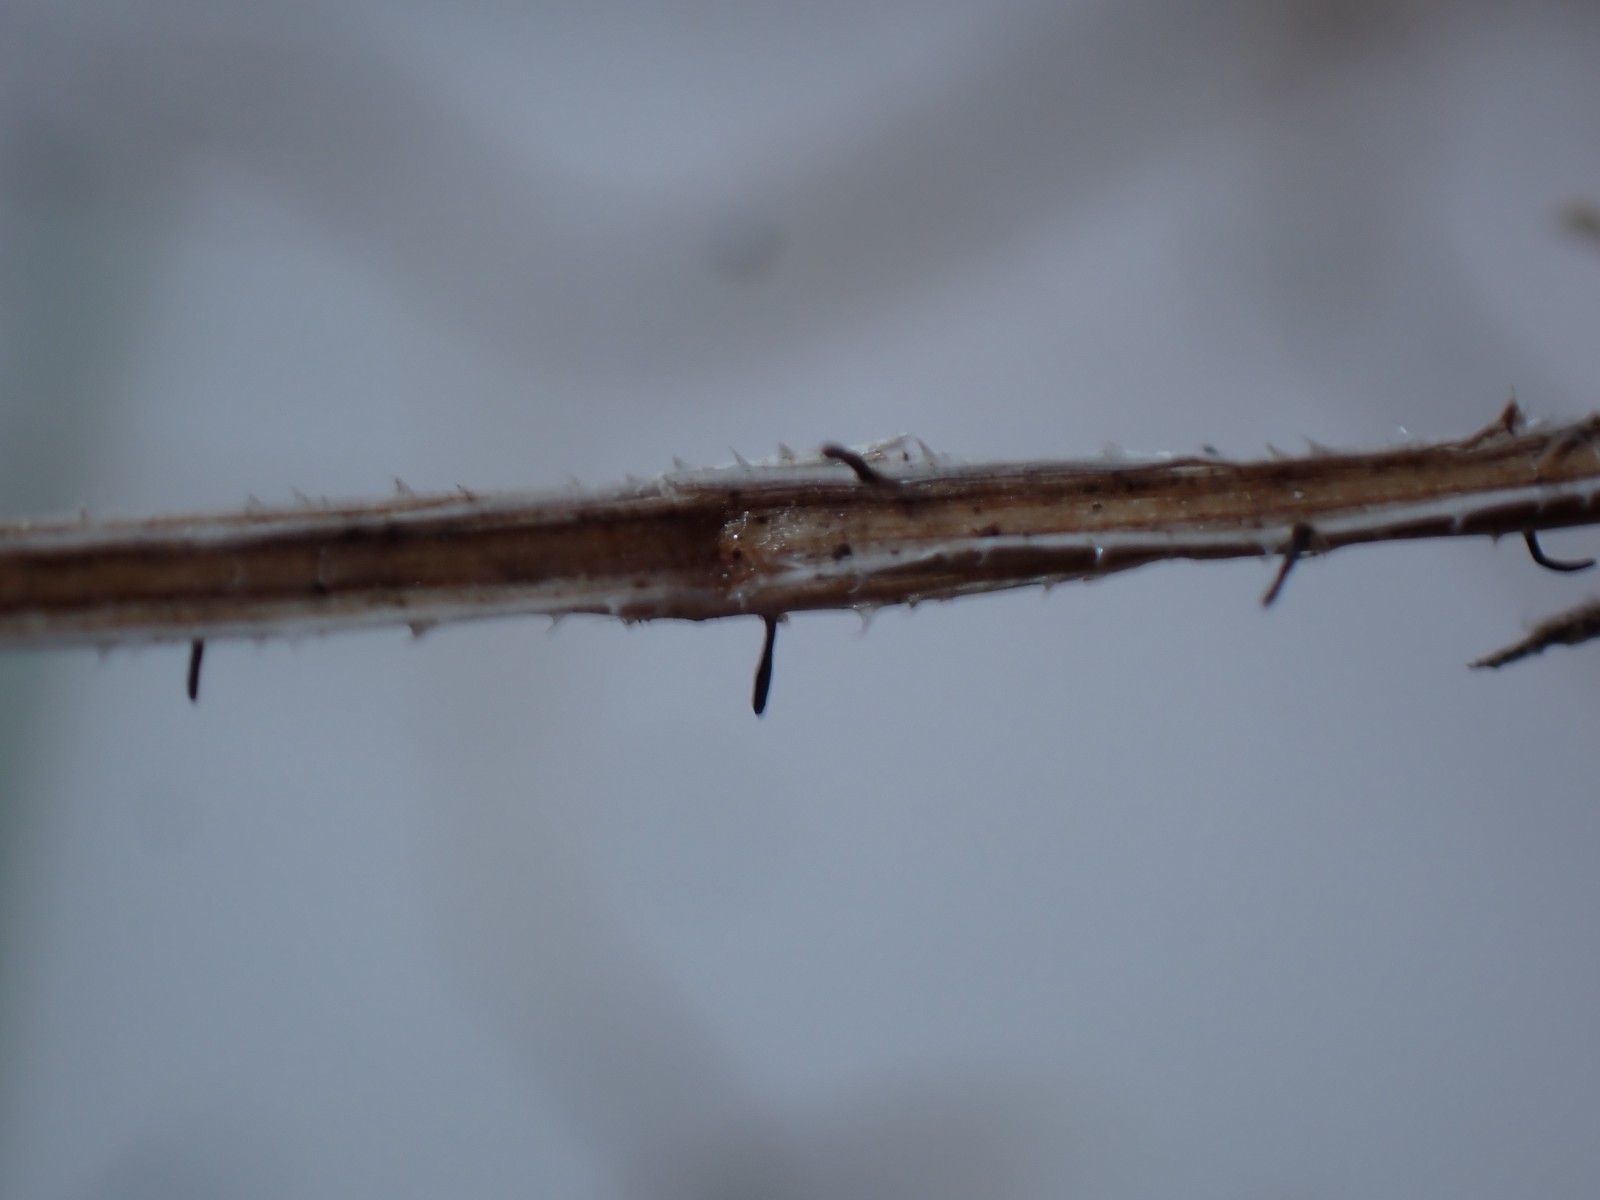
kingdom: Fungi
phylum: Ascomycota
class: Dothideomycetes
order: Acrospermales
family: Acrospermaceae
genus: Acrospermum
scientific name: Acrospermum pallidulum
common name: snerre-stængeltunge
